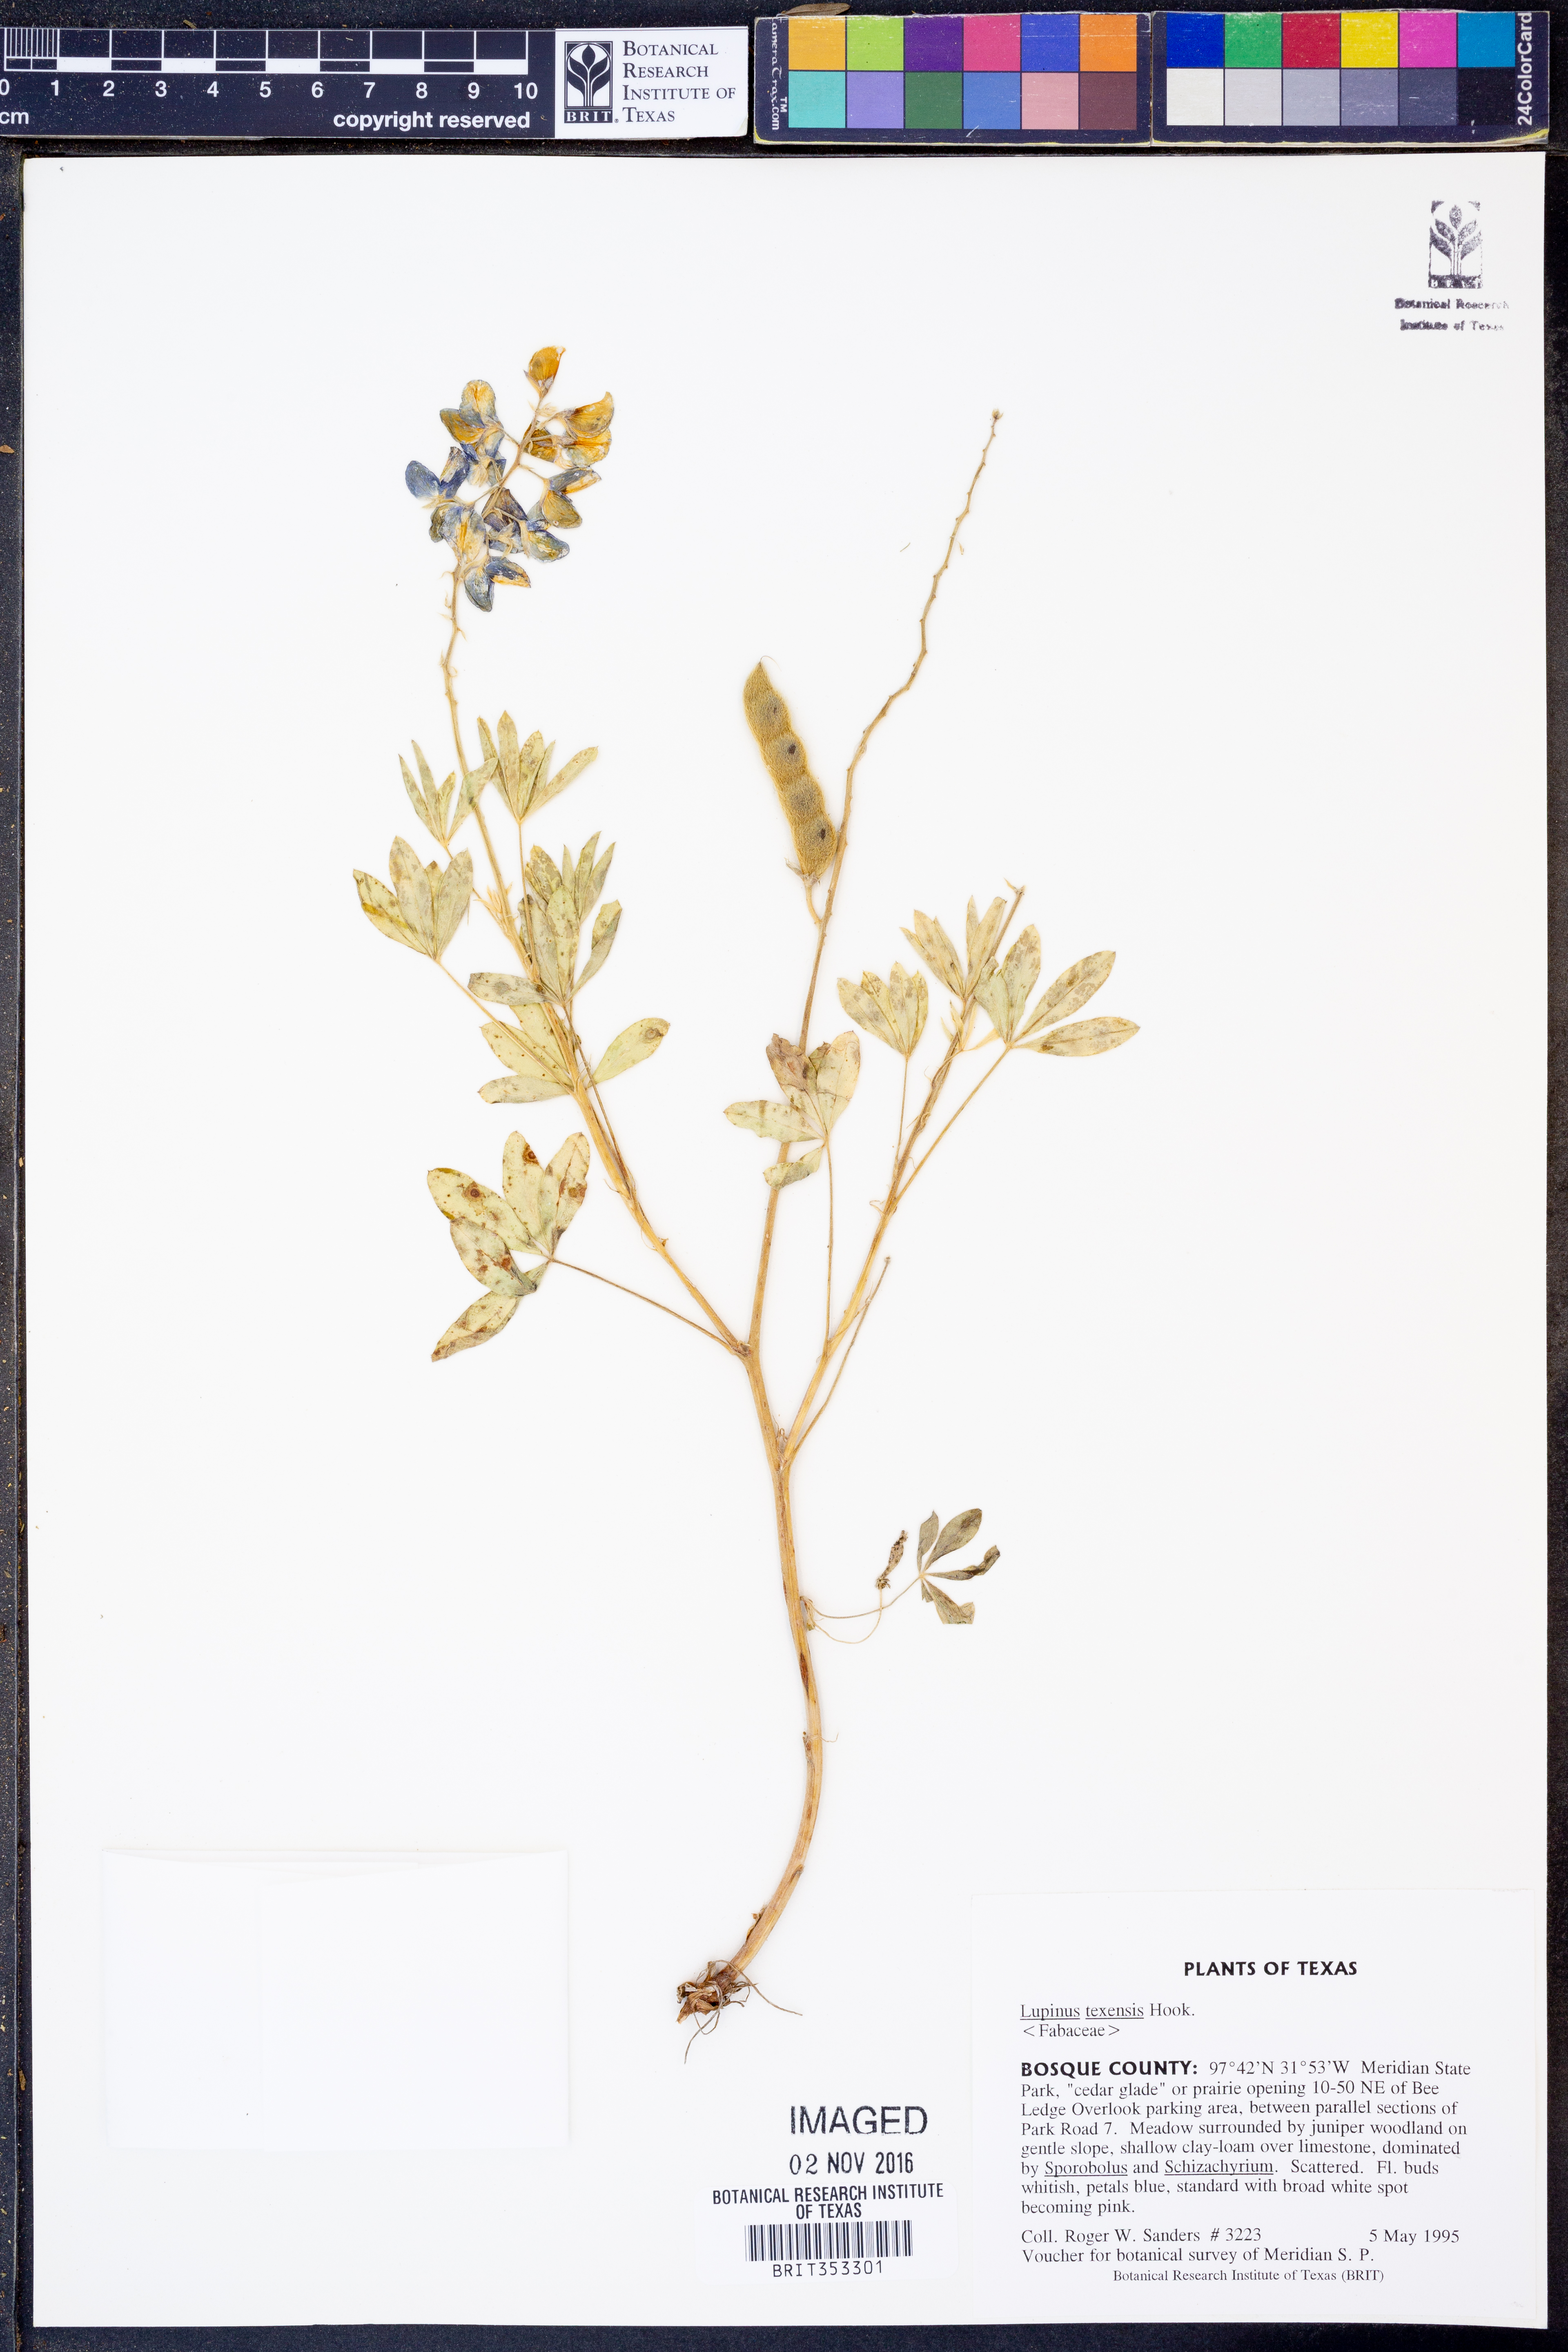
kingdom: Plantae
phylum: Tracheophyta
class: Magnoliopsida
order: Fabales
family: Fabaceae
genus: Lupinus
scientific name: Lupinus texensis
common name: Texas bluebonnet
